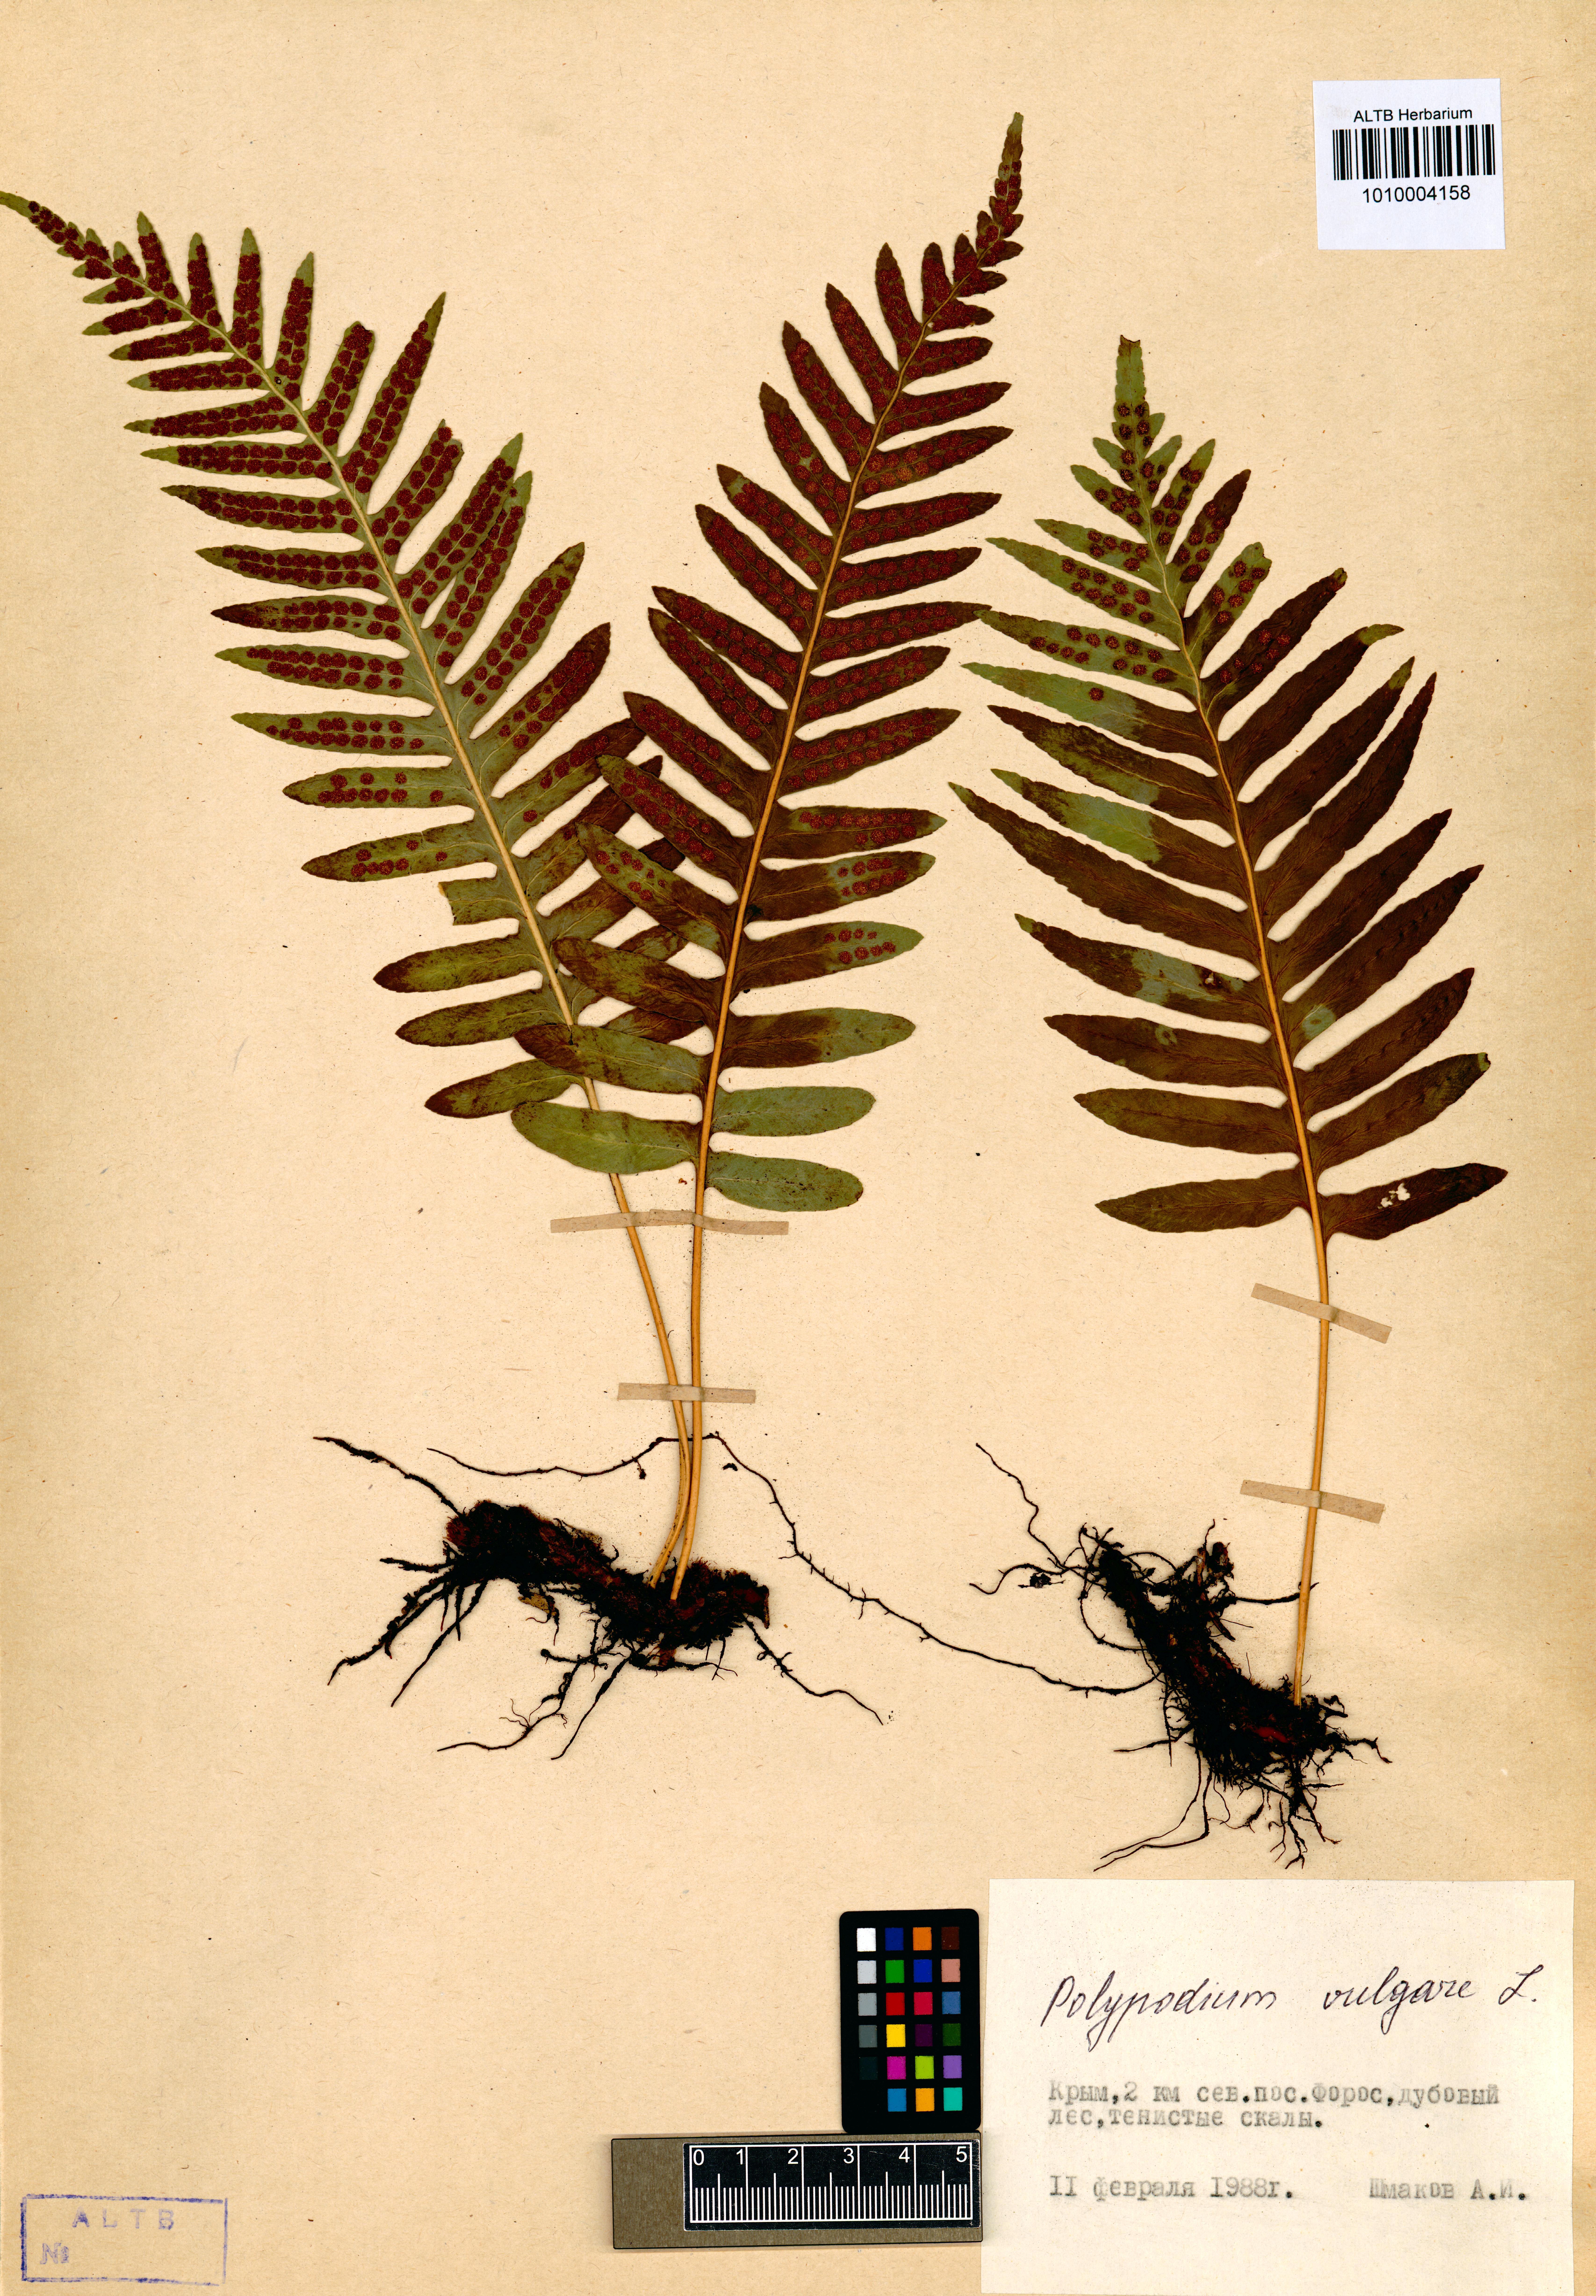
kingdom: Plantae
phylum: Tracheophyta
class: Polypodiopsida
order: Polypodiales
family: Polypodiaceae
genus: Polypodium
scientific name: Polypodium vulgare
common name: Common polypody
